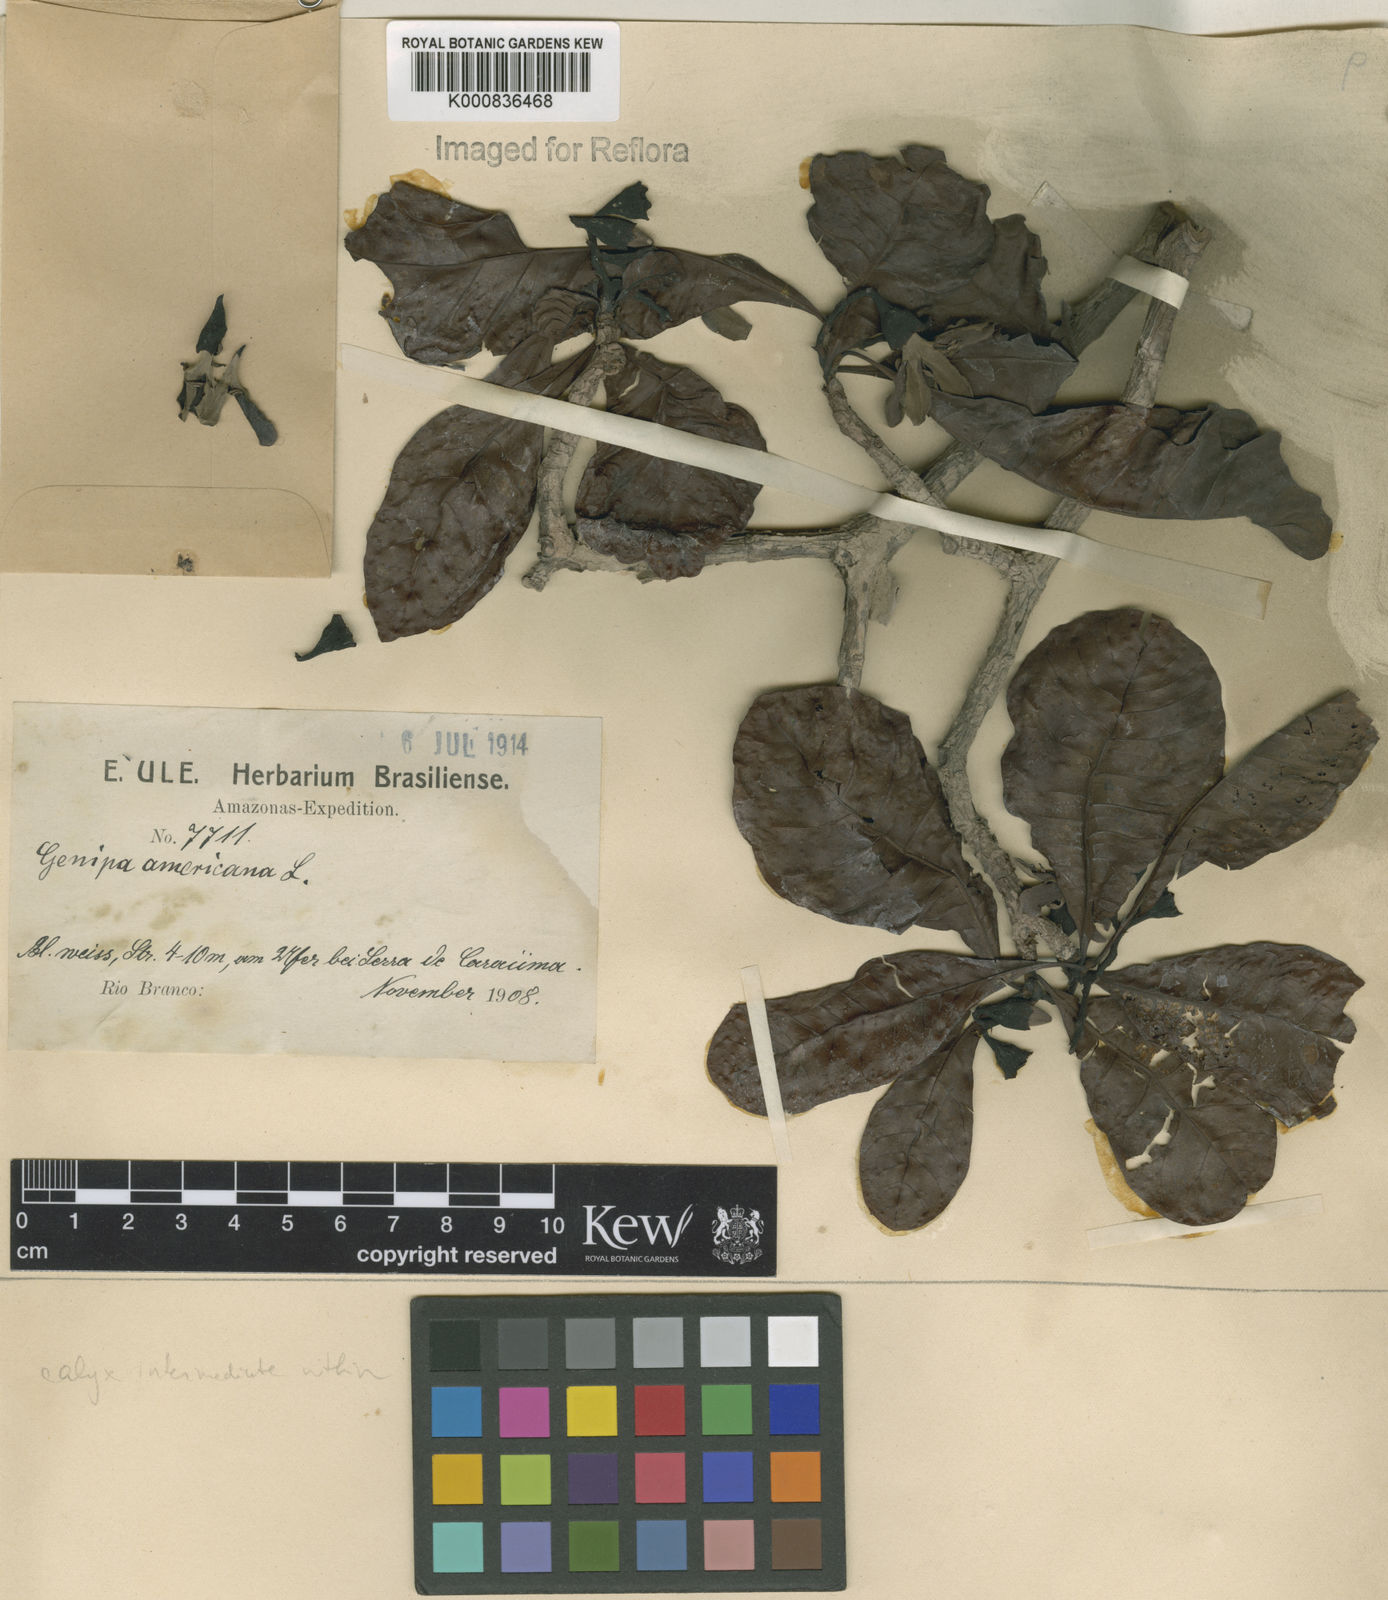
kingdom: Plantae
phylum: Tracheophyta
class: Magnoliopsida
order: Gentianales
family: Rubiaceae
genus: Genipa
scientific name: Genipa americana
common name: Genipap
